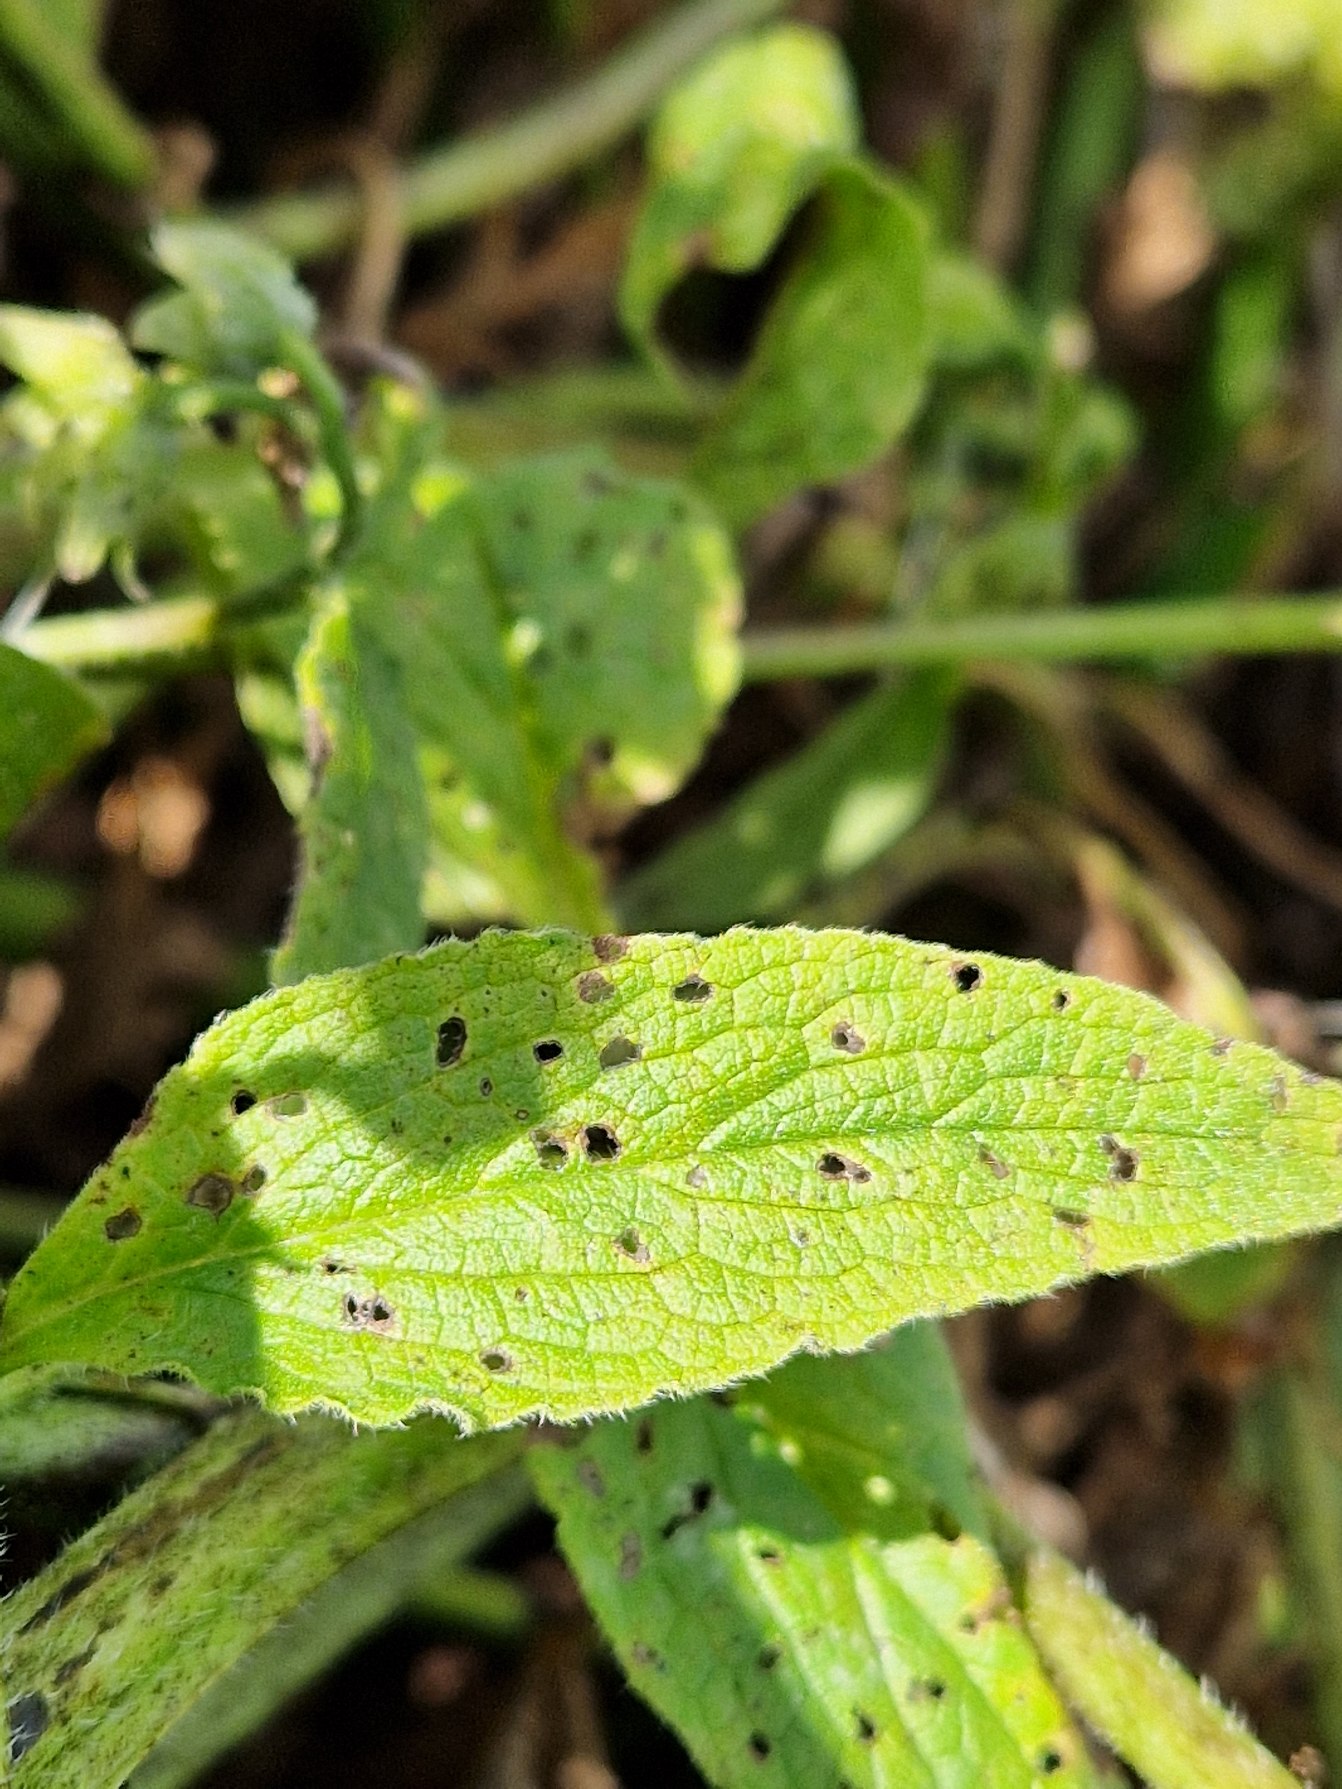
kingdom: Plantae
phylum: Tracheophyta
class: Magnoliopsida
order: Boraginales
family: Boraginaceae
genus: Symphytum
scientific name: Symphytum uplandicum
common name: Foder-kulsukker
